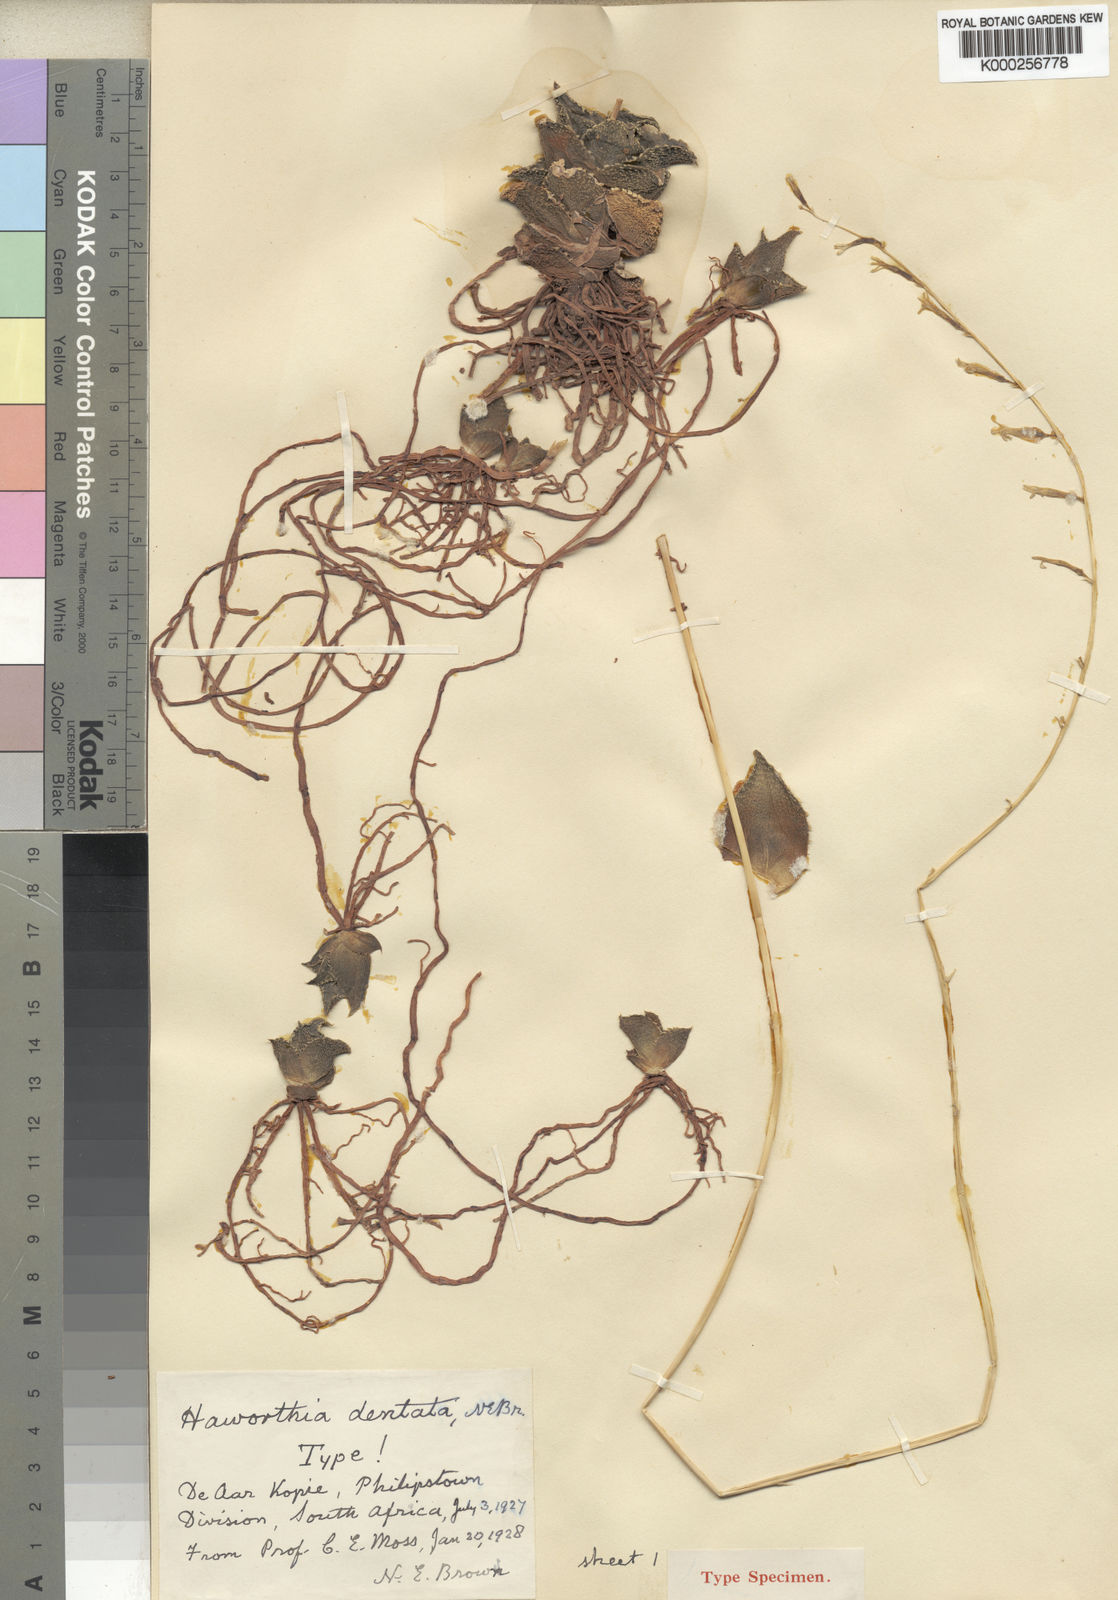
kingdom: Plantae
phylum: Tracheophyta
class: Liliopsida
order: Asparagales
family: Asphodelaceae
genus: Haworthia
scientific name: Haworthia floribunda
